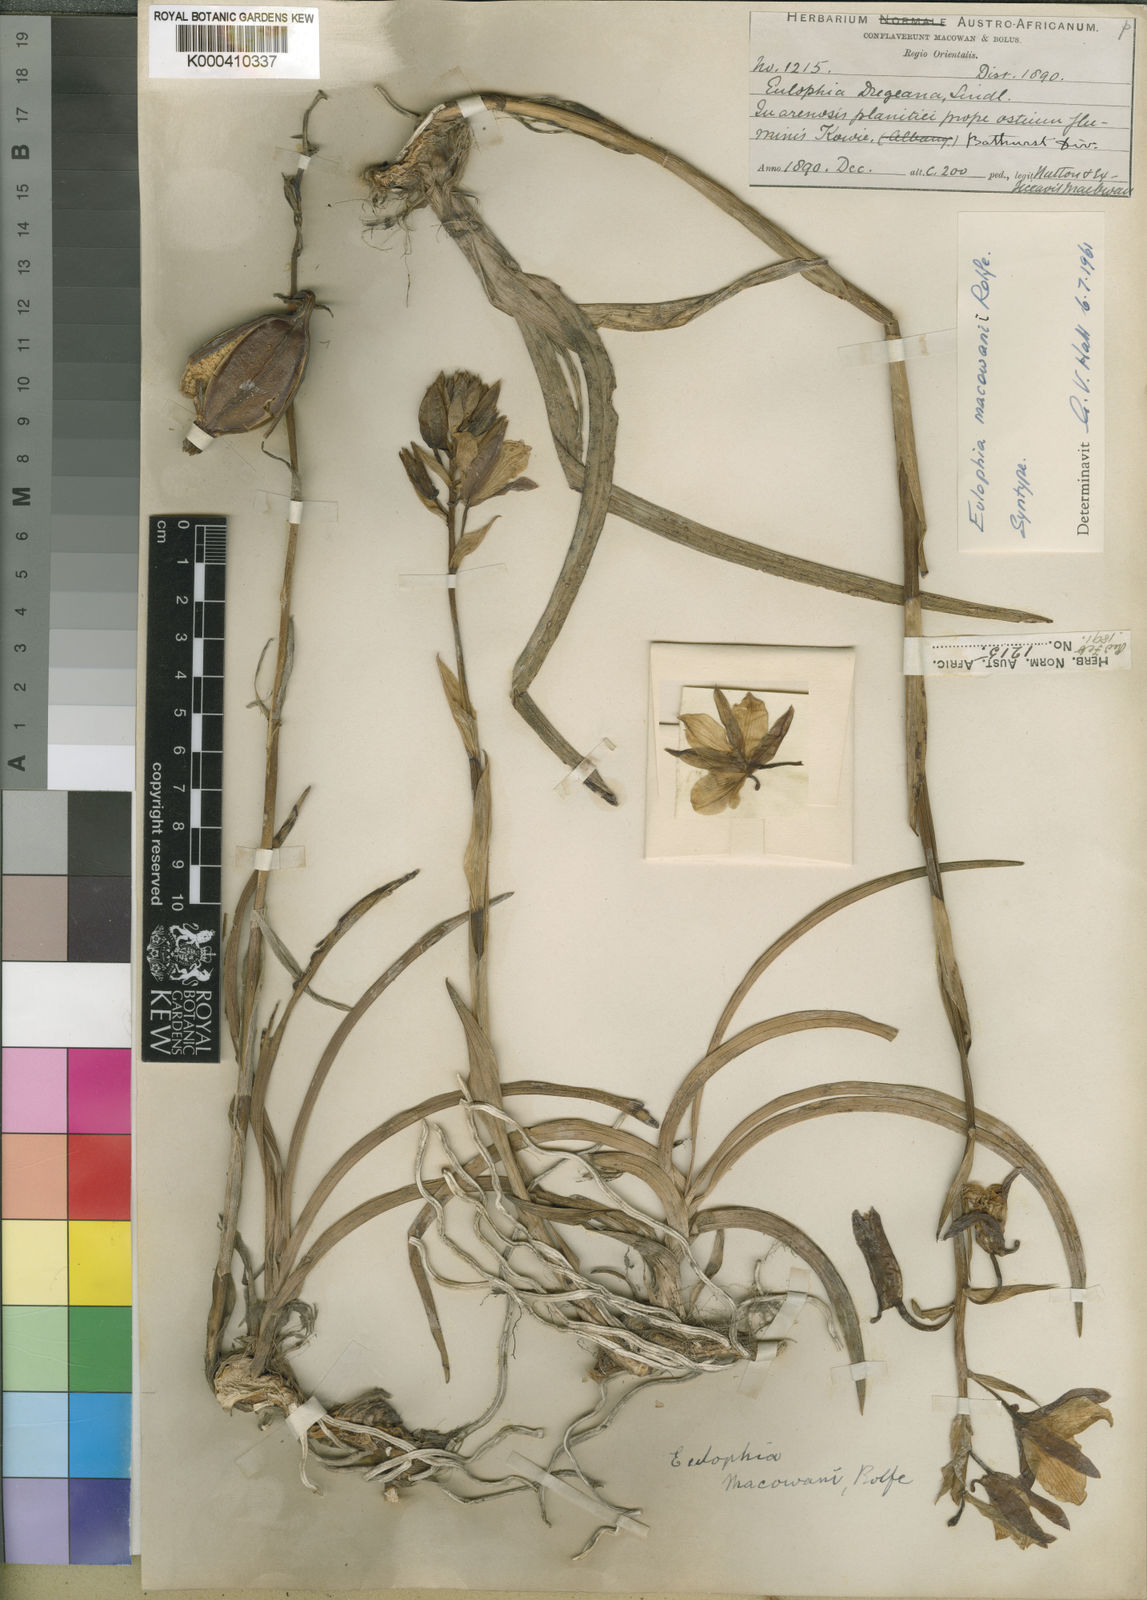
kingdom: Plantae
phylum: Tracheophyta
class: Liliopsida
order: Asparagales
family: Orchidaceae
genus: Eulophia
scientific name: Eulophia macowanii
